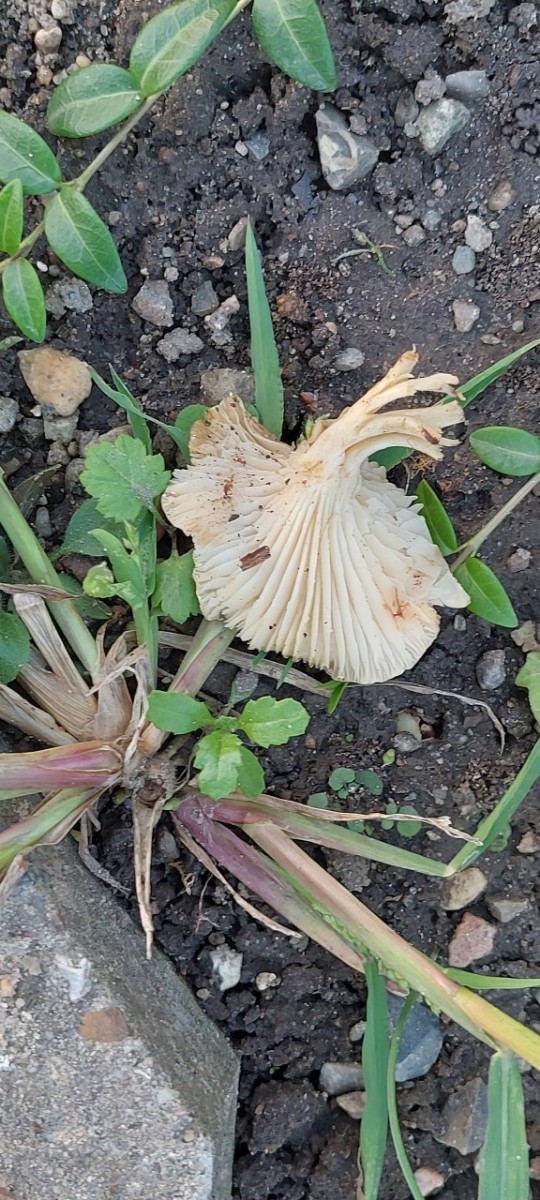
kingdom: Fungi
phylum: Basidiomycota
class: Agaricomycetes
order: Agaricales
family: Hygrophoraceae
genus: Cuphophyllus
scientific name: Cuphophyllus
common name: vokshat
